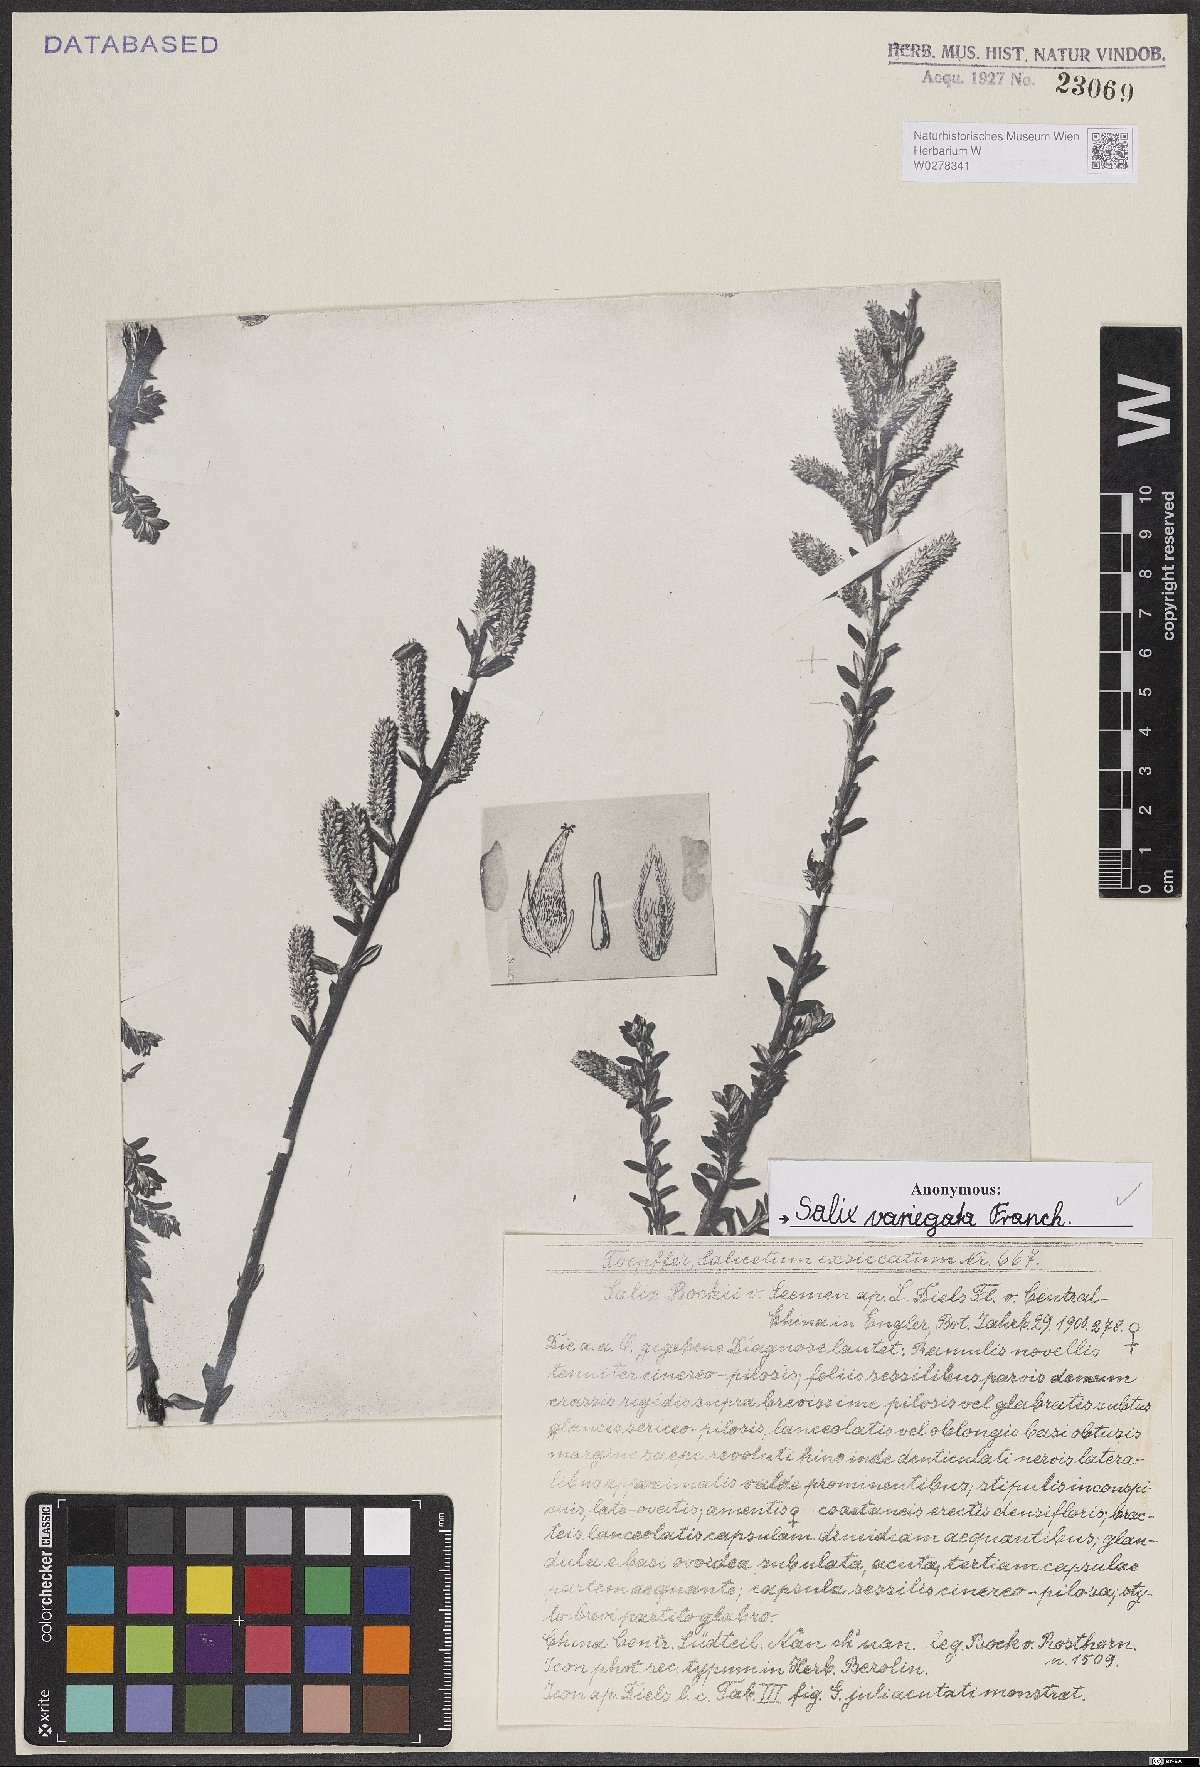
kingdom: Plantae
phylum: Tracheophyta
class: Magnoliopsida
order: Malpighiales
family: Salicaceae
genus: Salix
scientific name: Salix variegata
